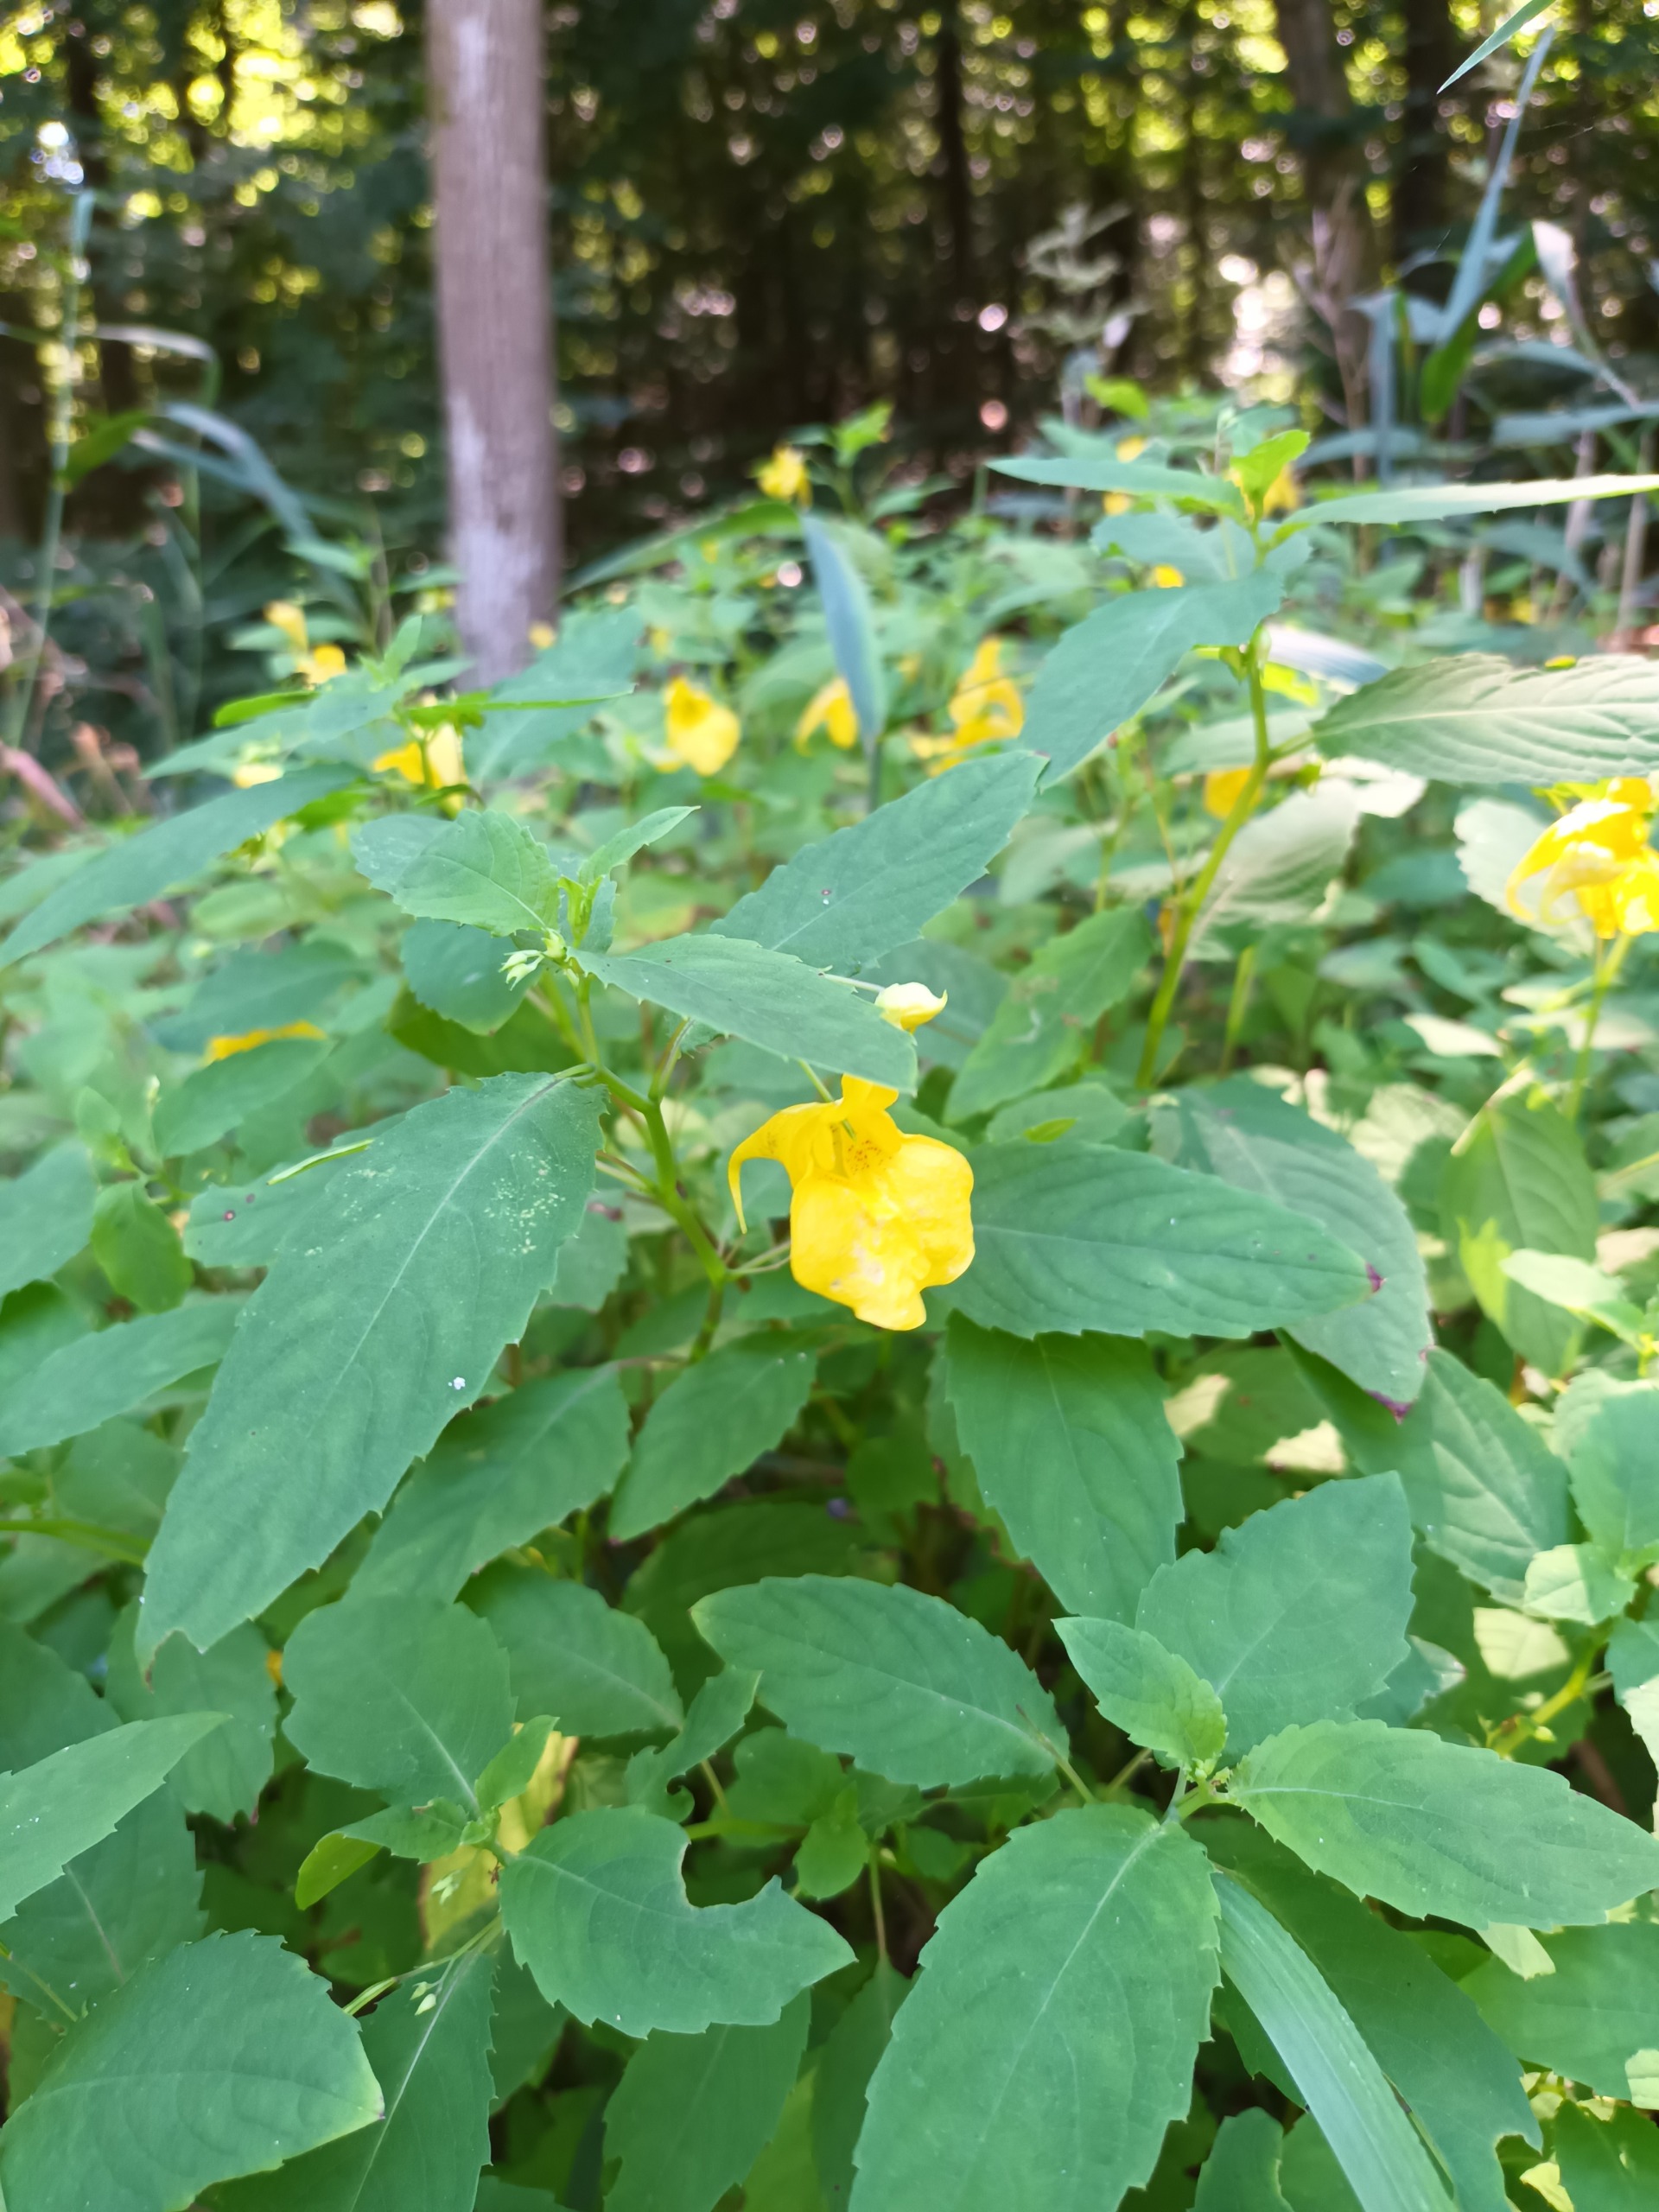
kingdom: Plantae
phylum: Tracheophyta
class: Magnoliopsida
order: Ericales
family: Balsaminaceae
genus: Impatiens
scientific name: Impatiens noli-tangere
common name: Spring-balsamin
